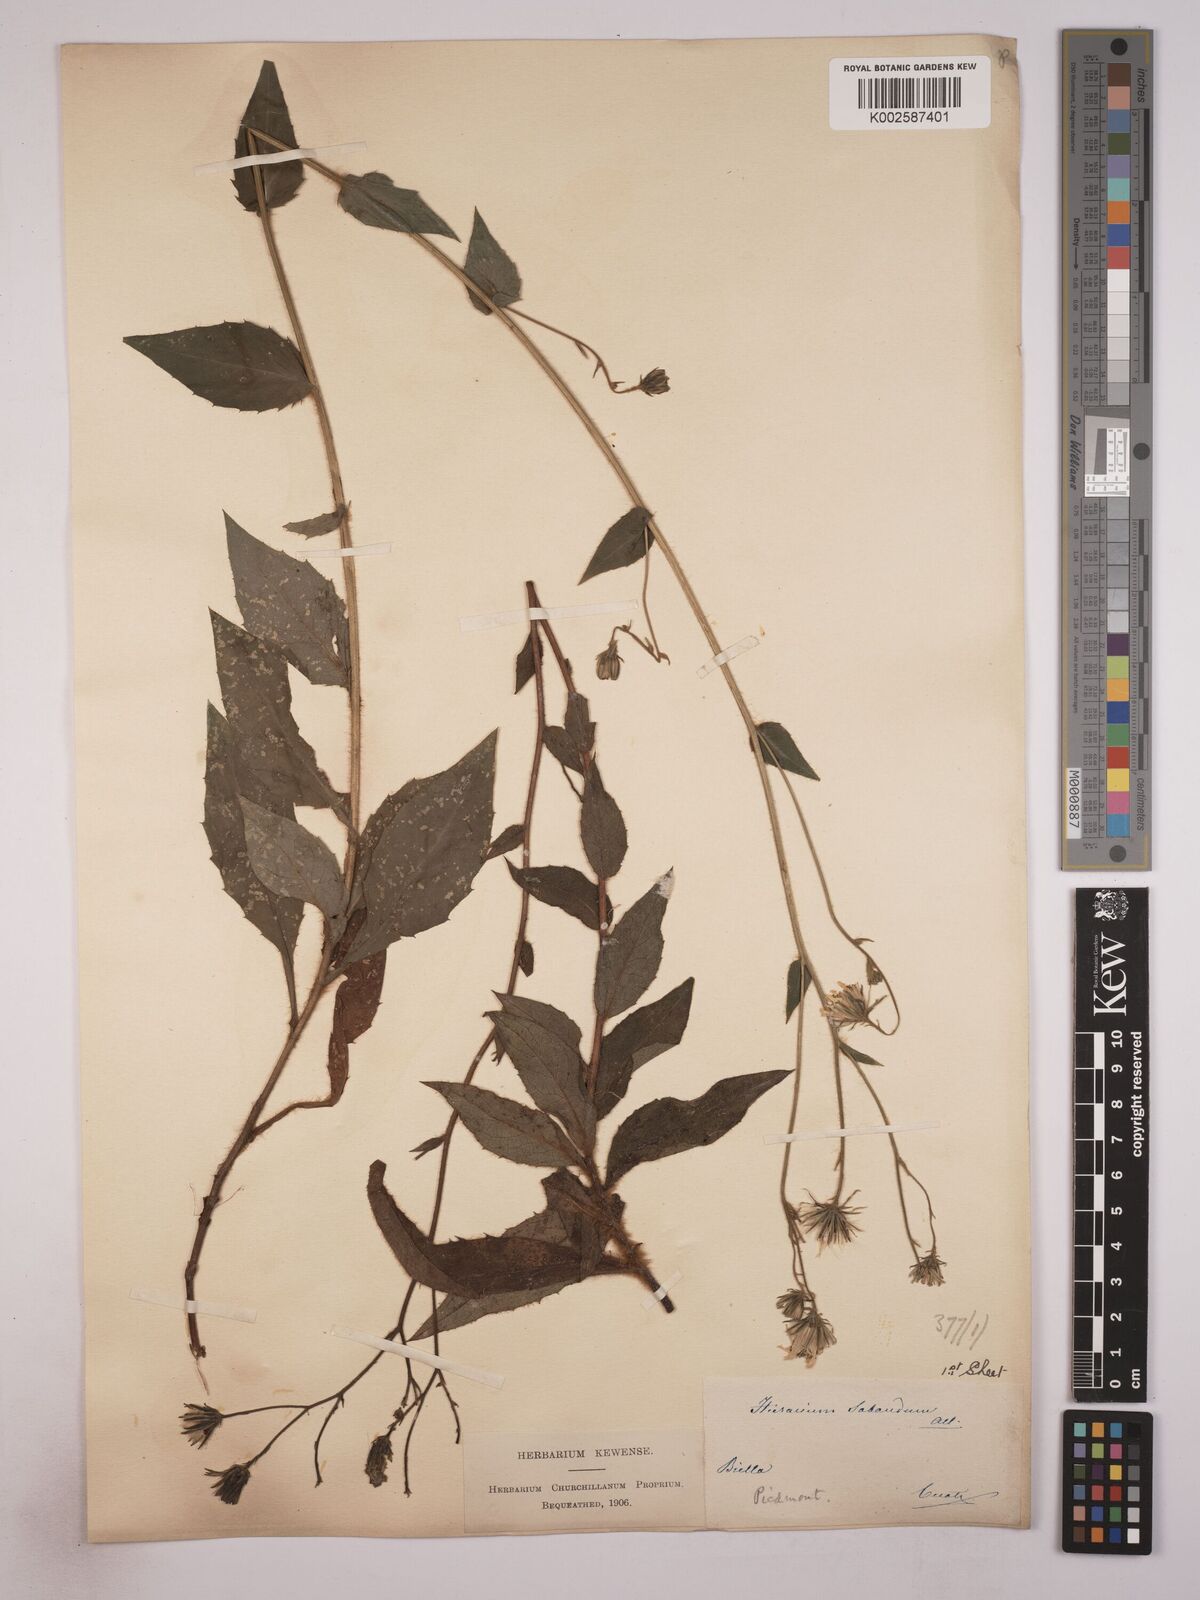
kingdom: Plantae
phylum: Tracheophyta
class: Magnoliopsida
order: Asterales
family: Asteraceae
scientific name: Asteraceae
